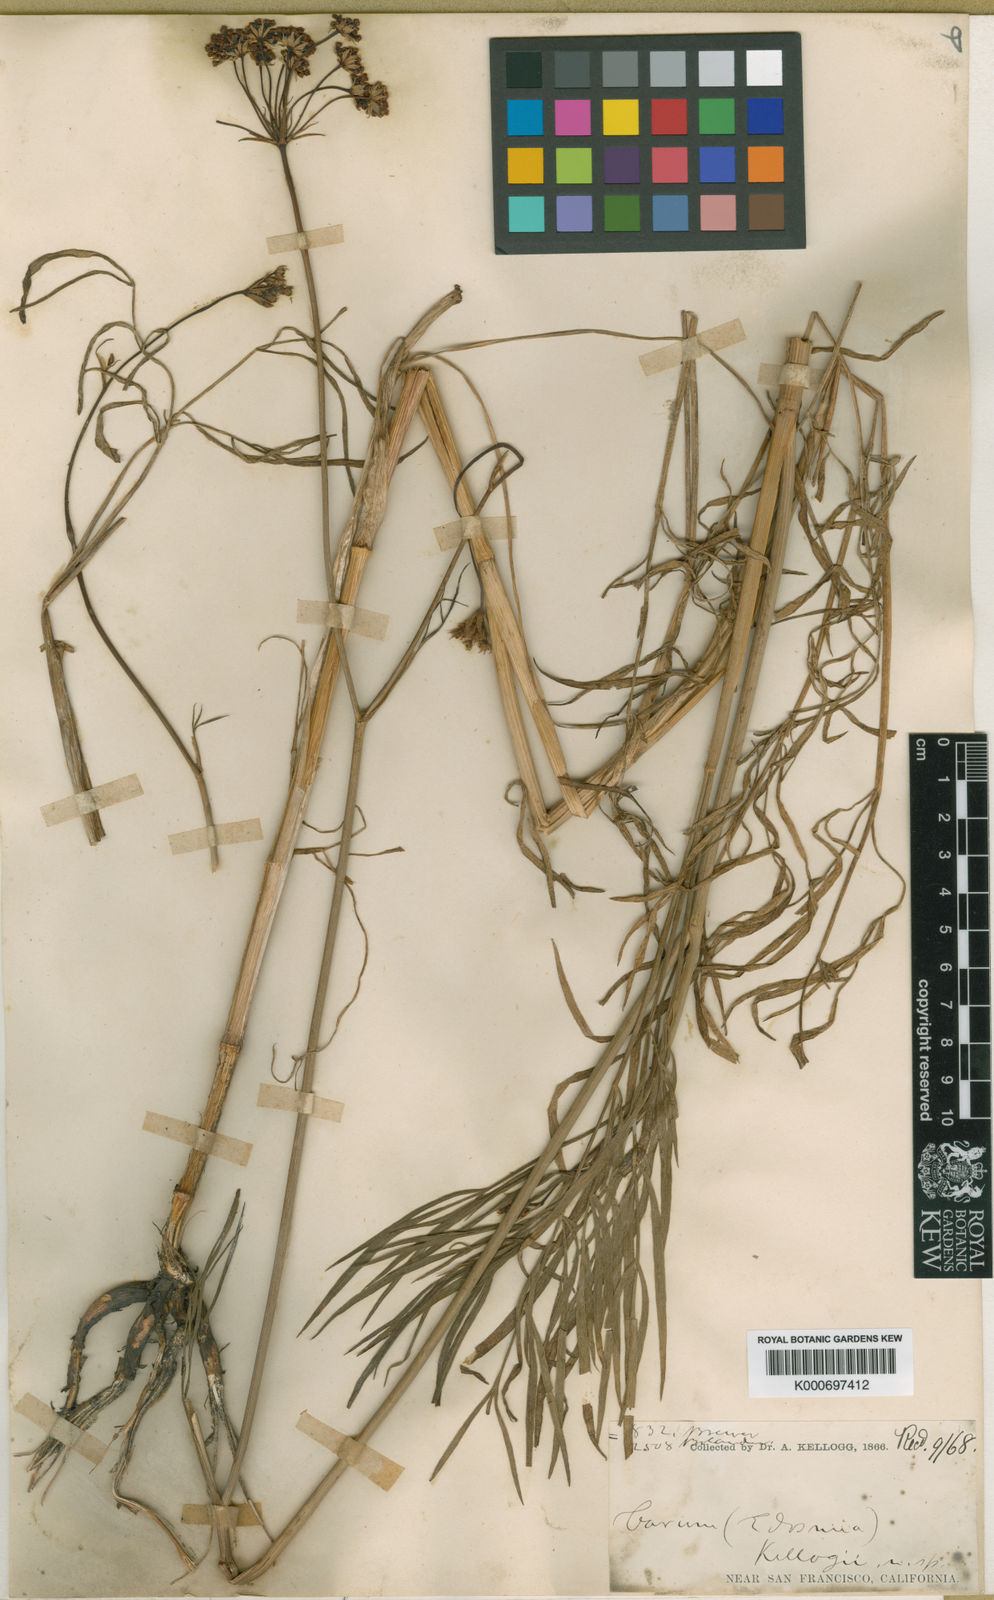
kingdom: Plantae
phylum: Tracheophyta
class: Magnoliopsida
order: Apiales
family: Apiaceae
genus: Perideridia
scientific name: Perideridia kelloggii
